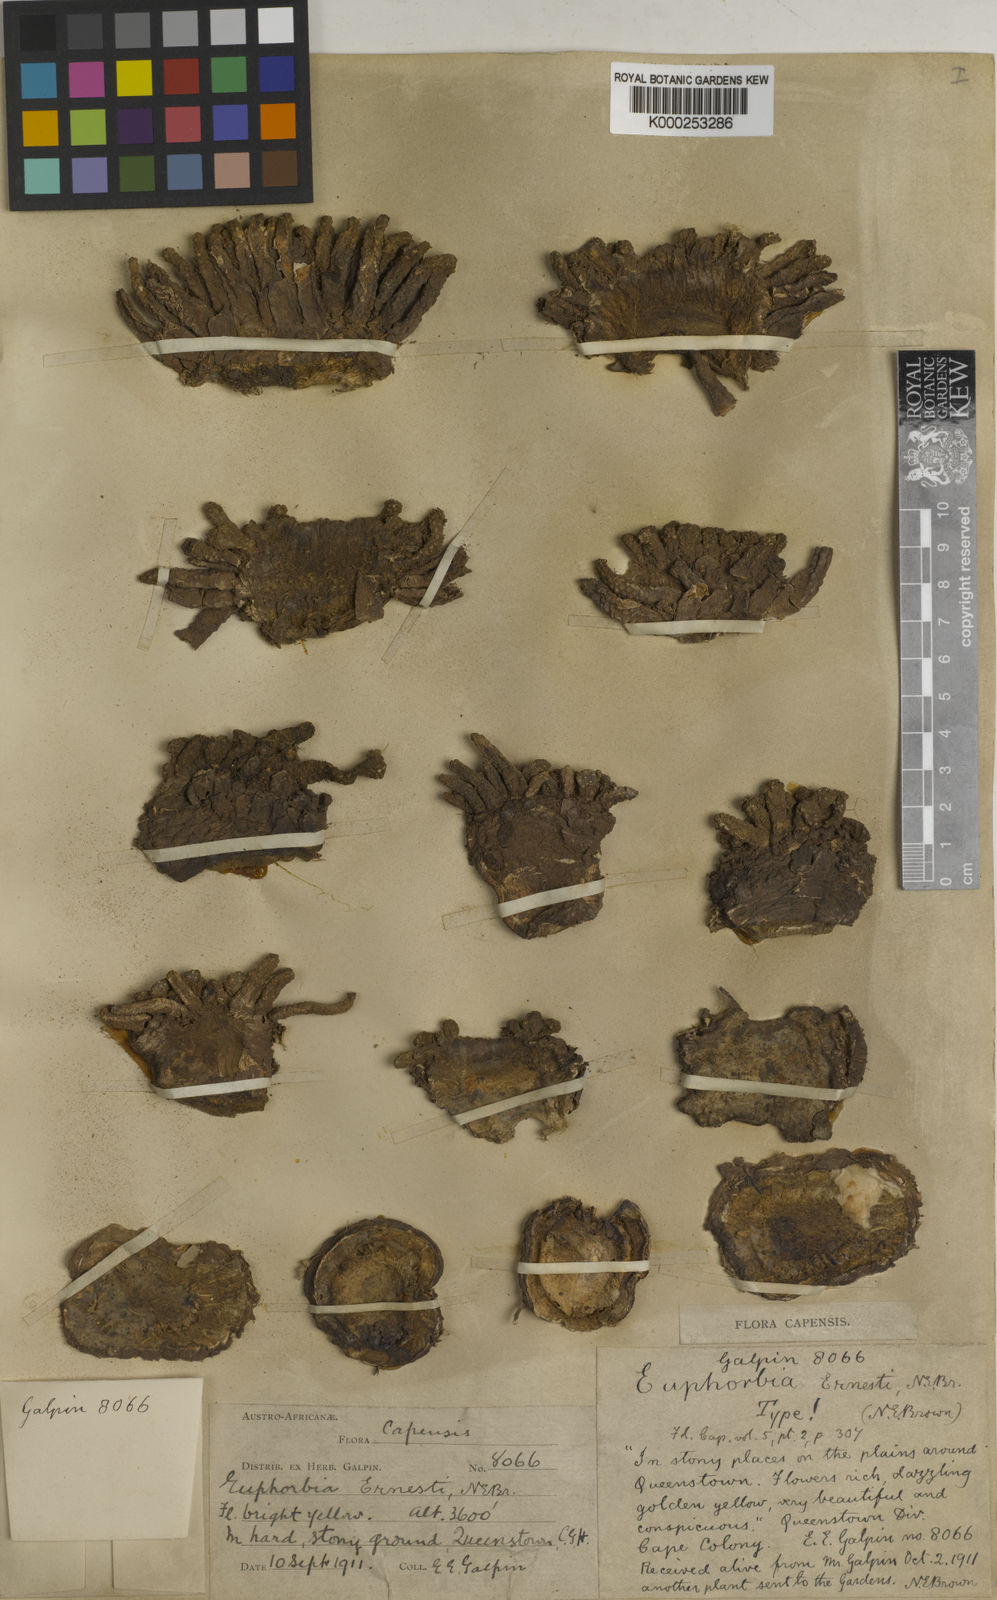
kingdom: Plantae
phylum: Tracheophyta
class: Magnoliopsida
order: Malpighiales
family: Euphorbiaceae
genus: Euphorbia
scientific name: Euphorbia flanaganii
